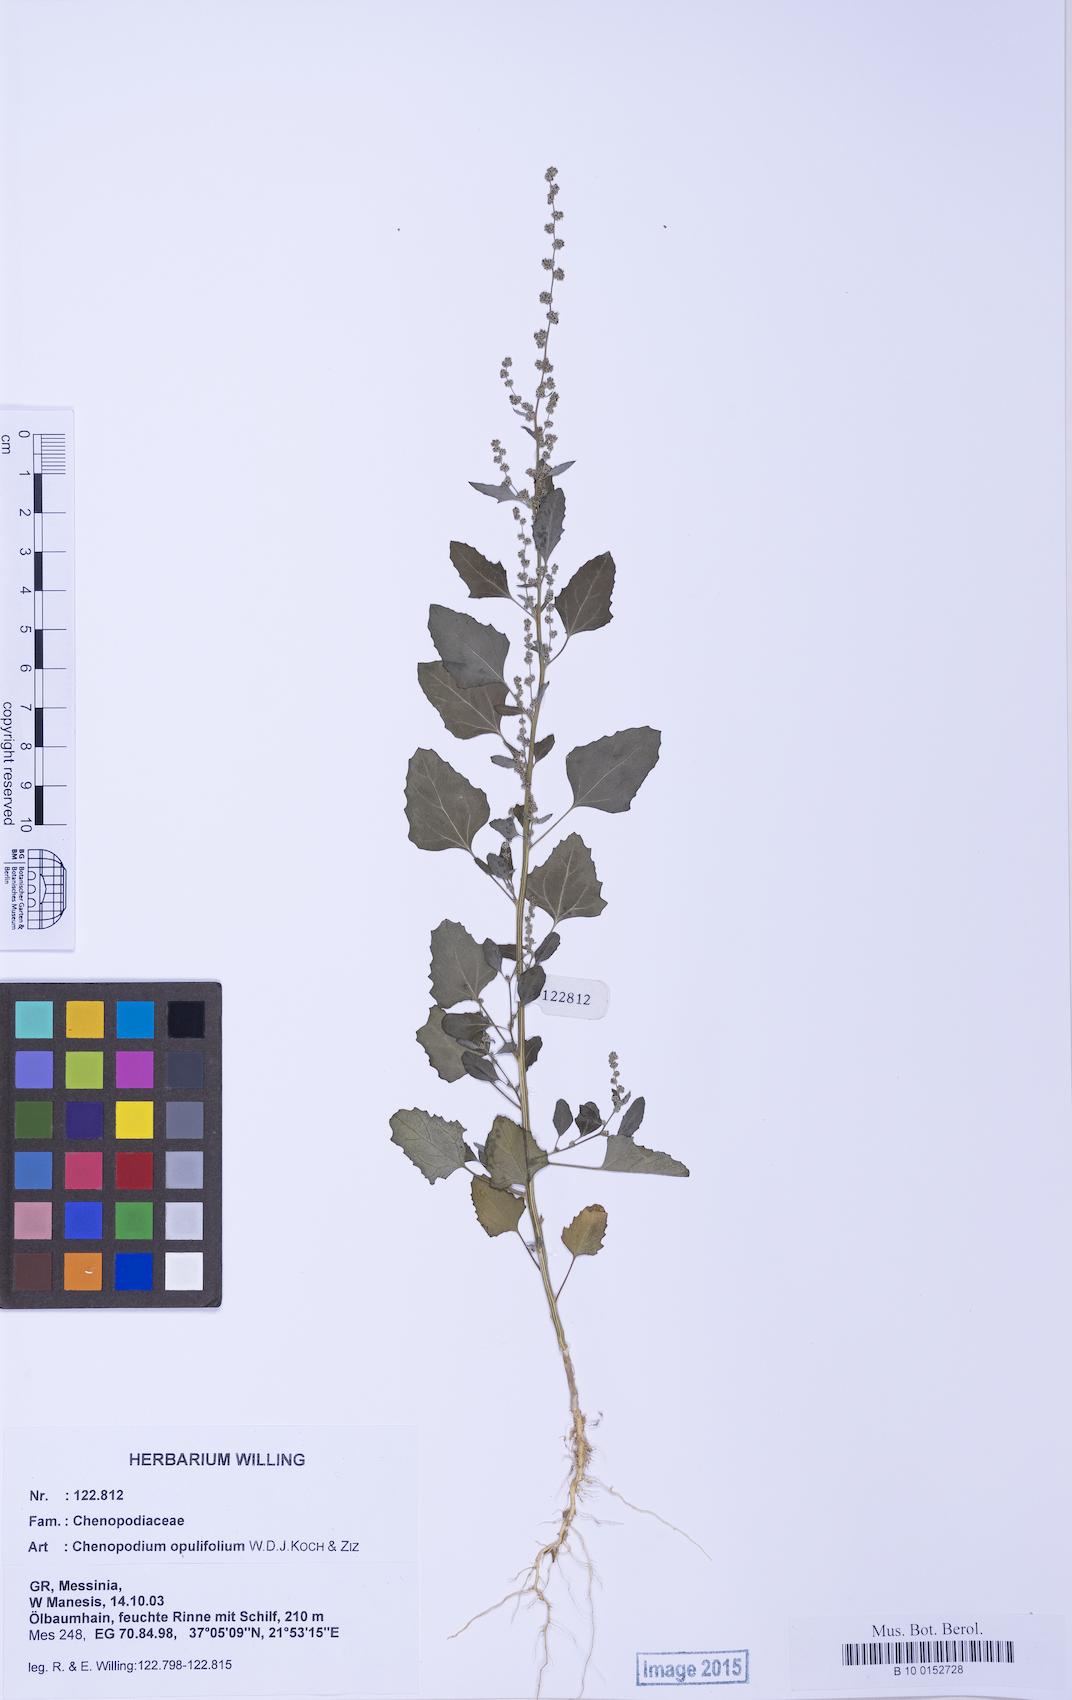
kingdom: Plantae
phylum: Tracheophyta
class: Magnoliopsida
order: Caryophyllales
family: Amaranthaceae
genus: Chenopodium
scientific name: Chenopodium album
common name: Fat-hen
